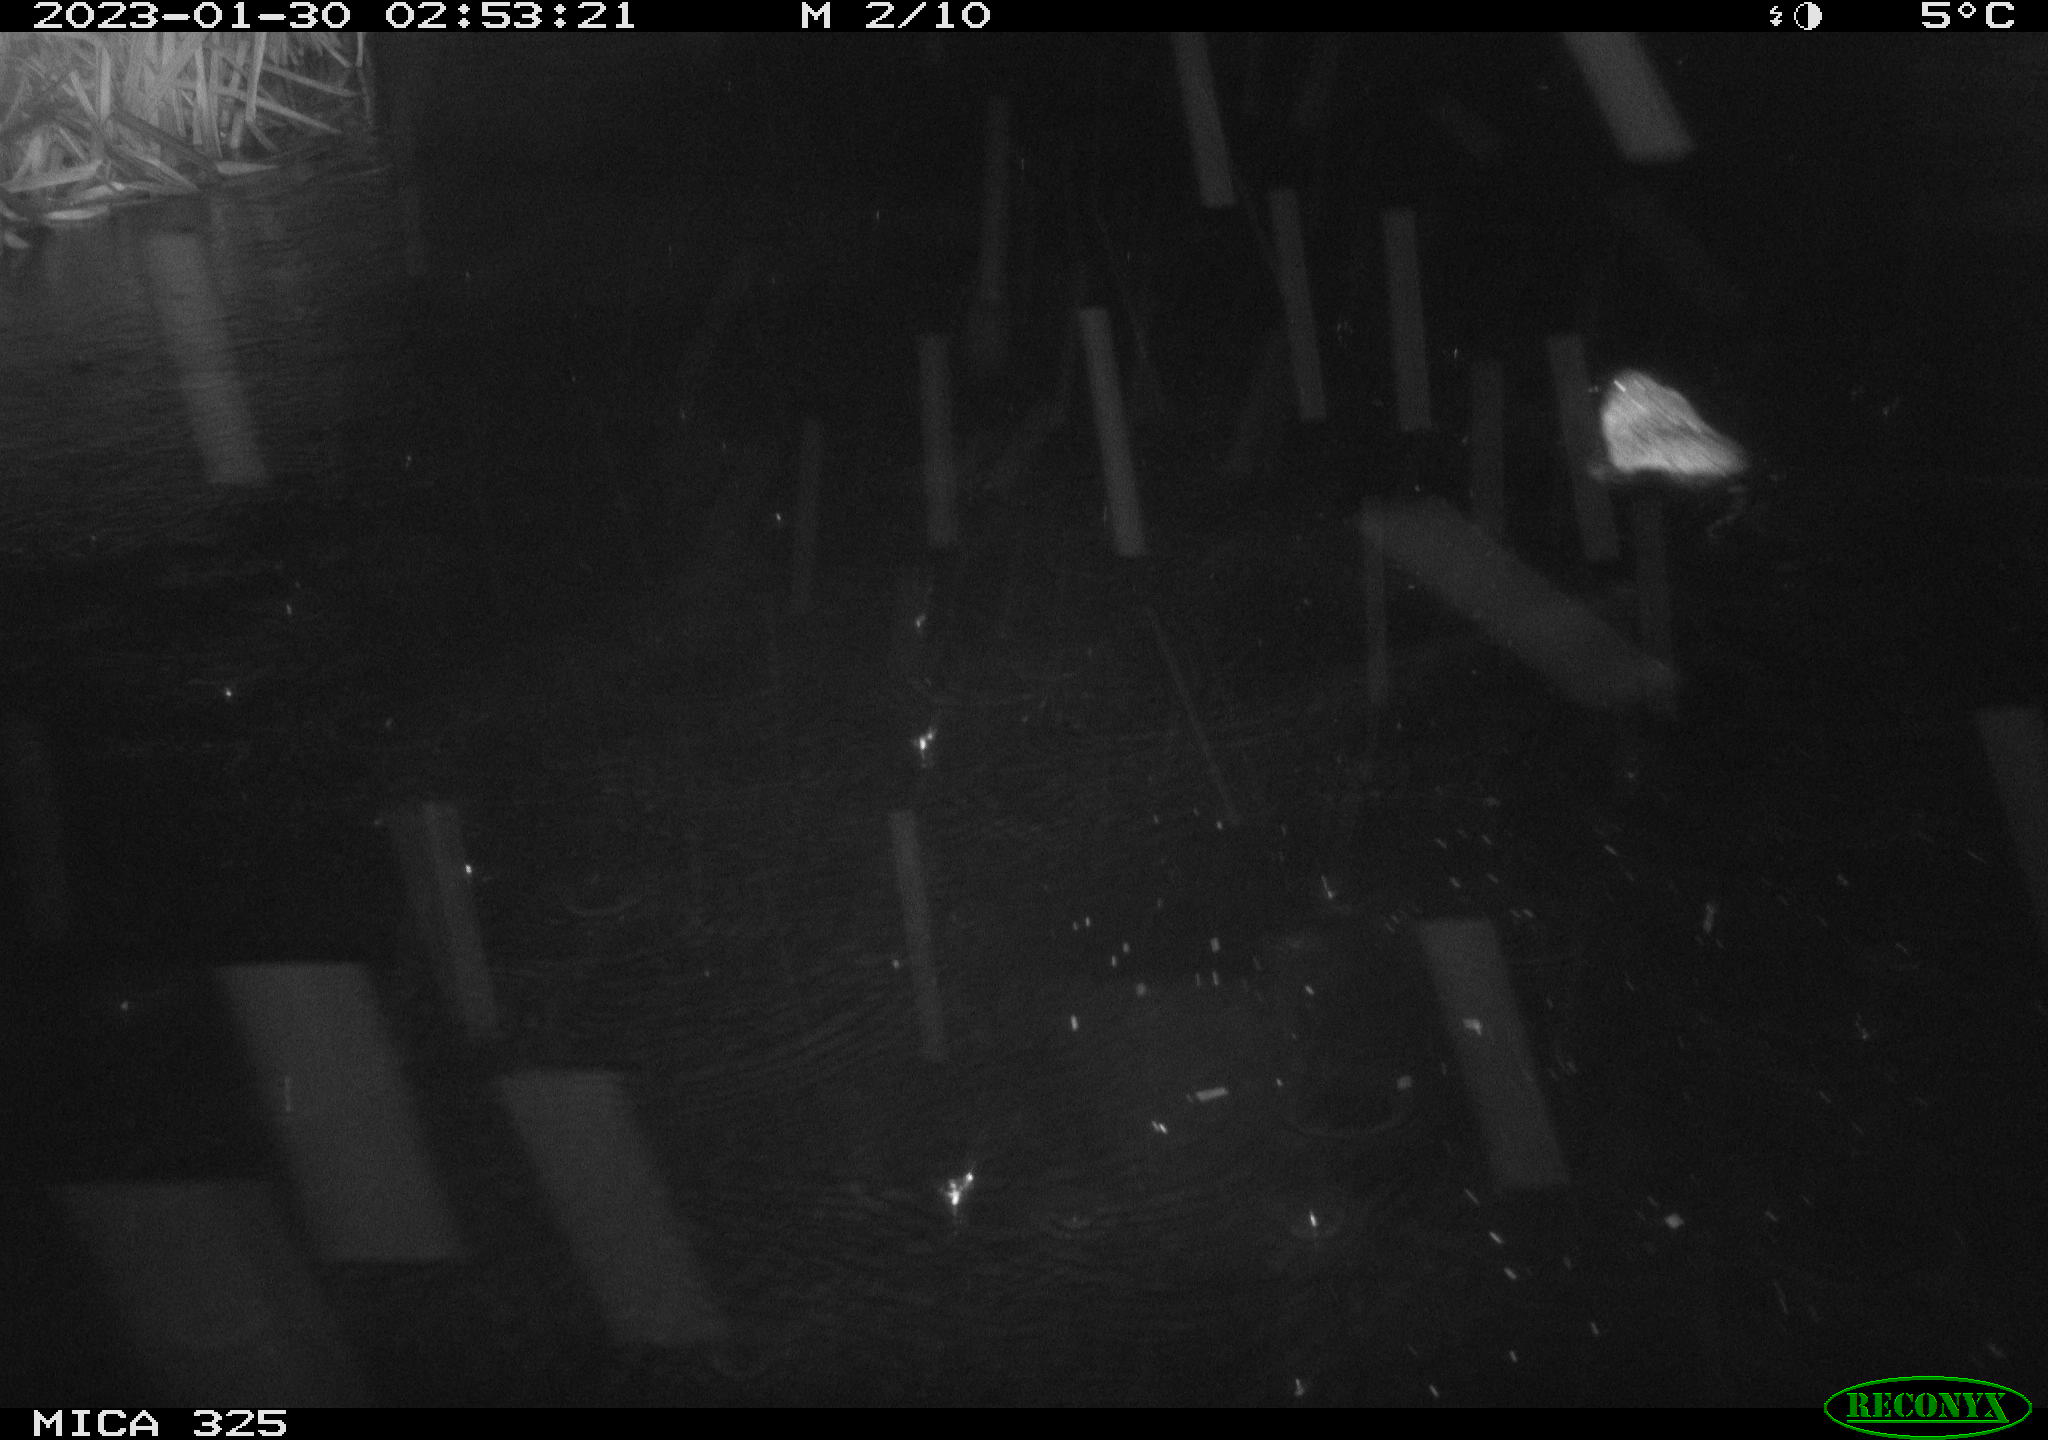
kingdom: Animalia
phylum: Chordata
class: Mammalia
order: Rodentia
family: Cricetidae
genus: Ondatra
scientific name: Ondatra zibethicus
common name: Muskrat
